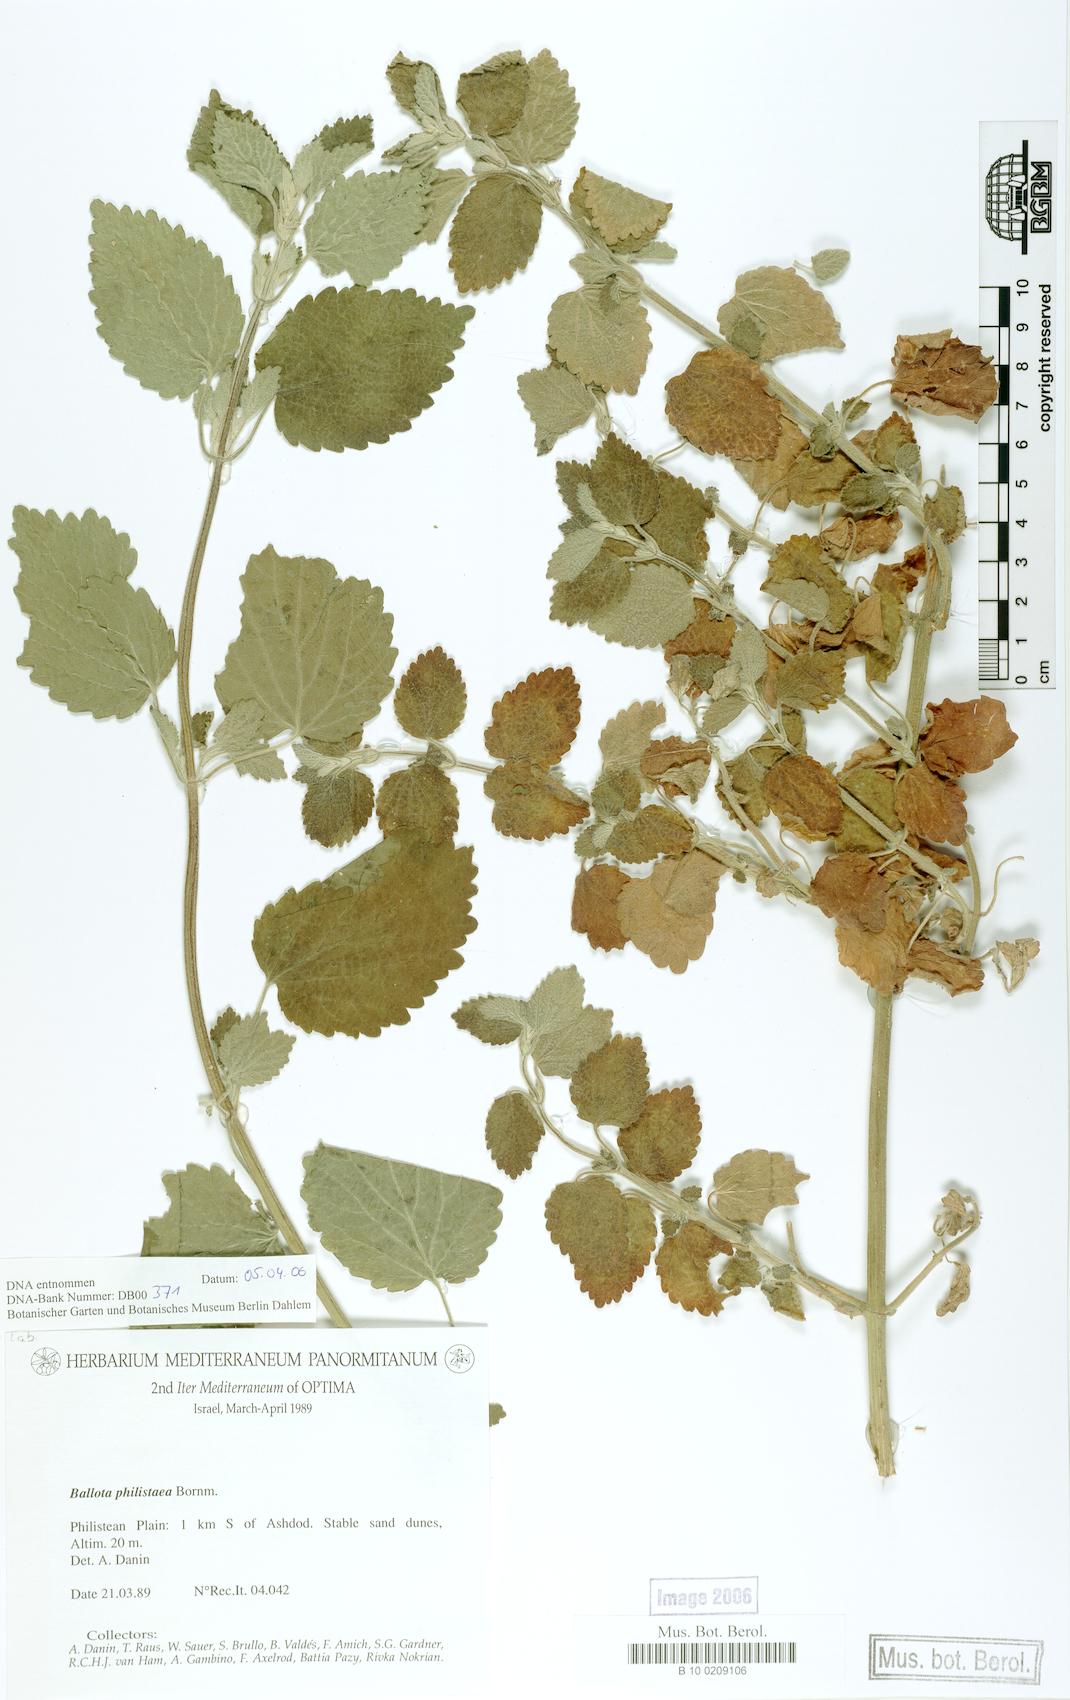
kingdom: Plantae
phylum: Tracheophyta
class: Magnoliopsida
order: Lamiales
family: Lamiaceae
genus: Ballota
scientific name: Ballota philistaea
